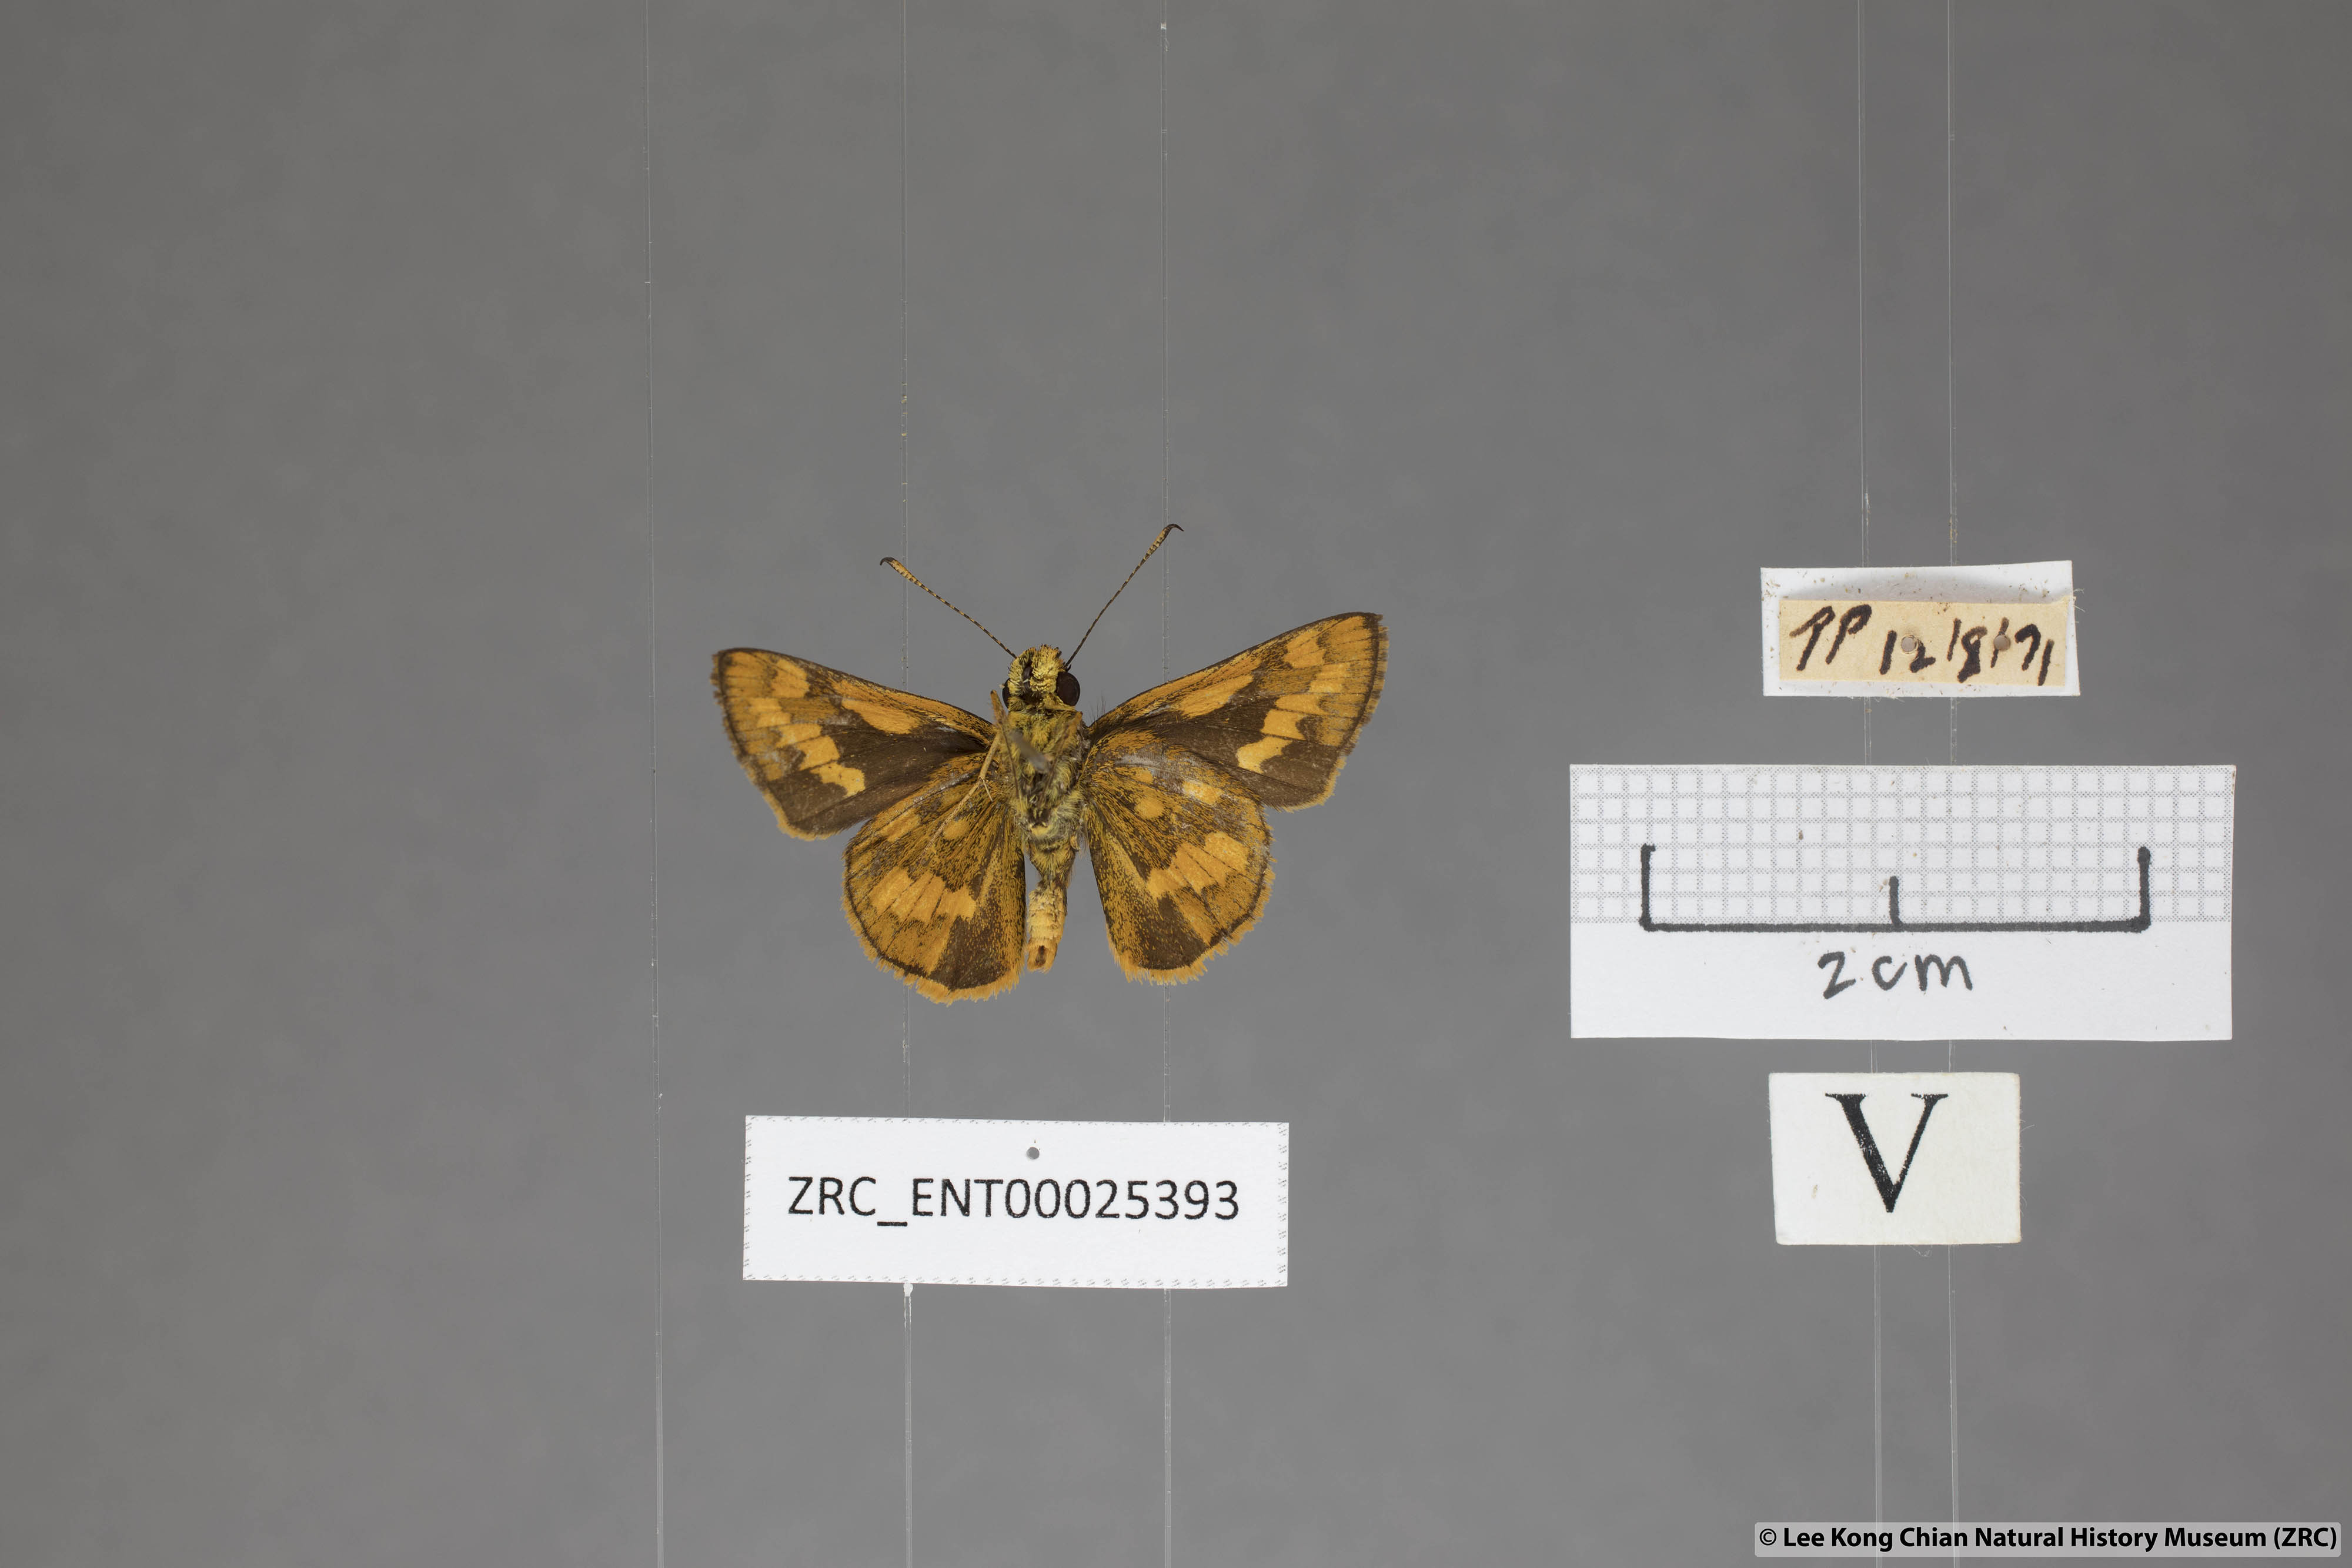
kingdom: Animalia
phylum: Arthropoda
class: Insecta
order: Lepidoptera
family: Hesperiidae
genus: Potanthus
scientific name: Potanthus ganda
